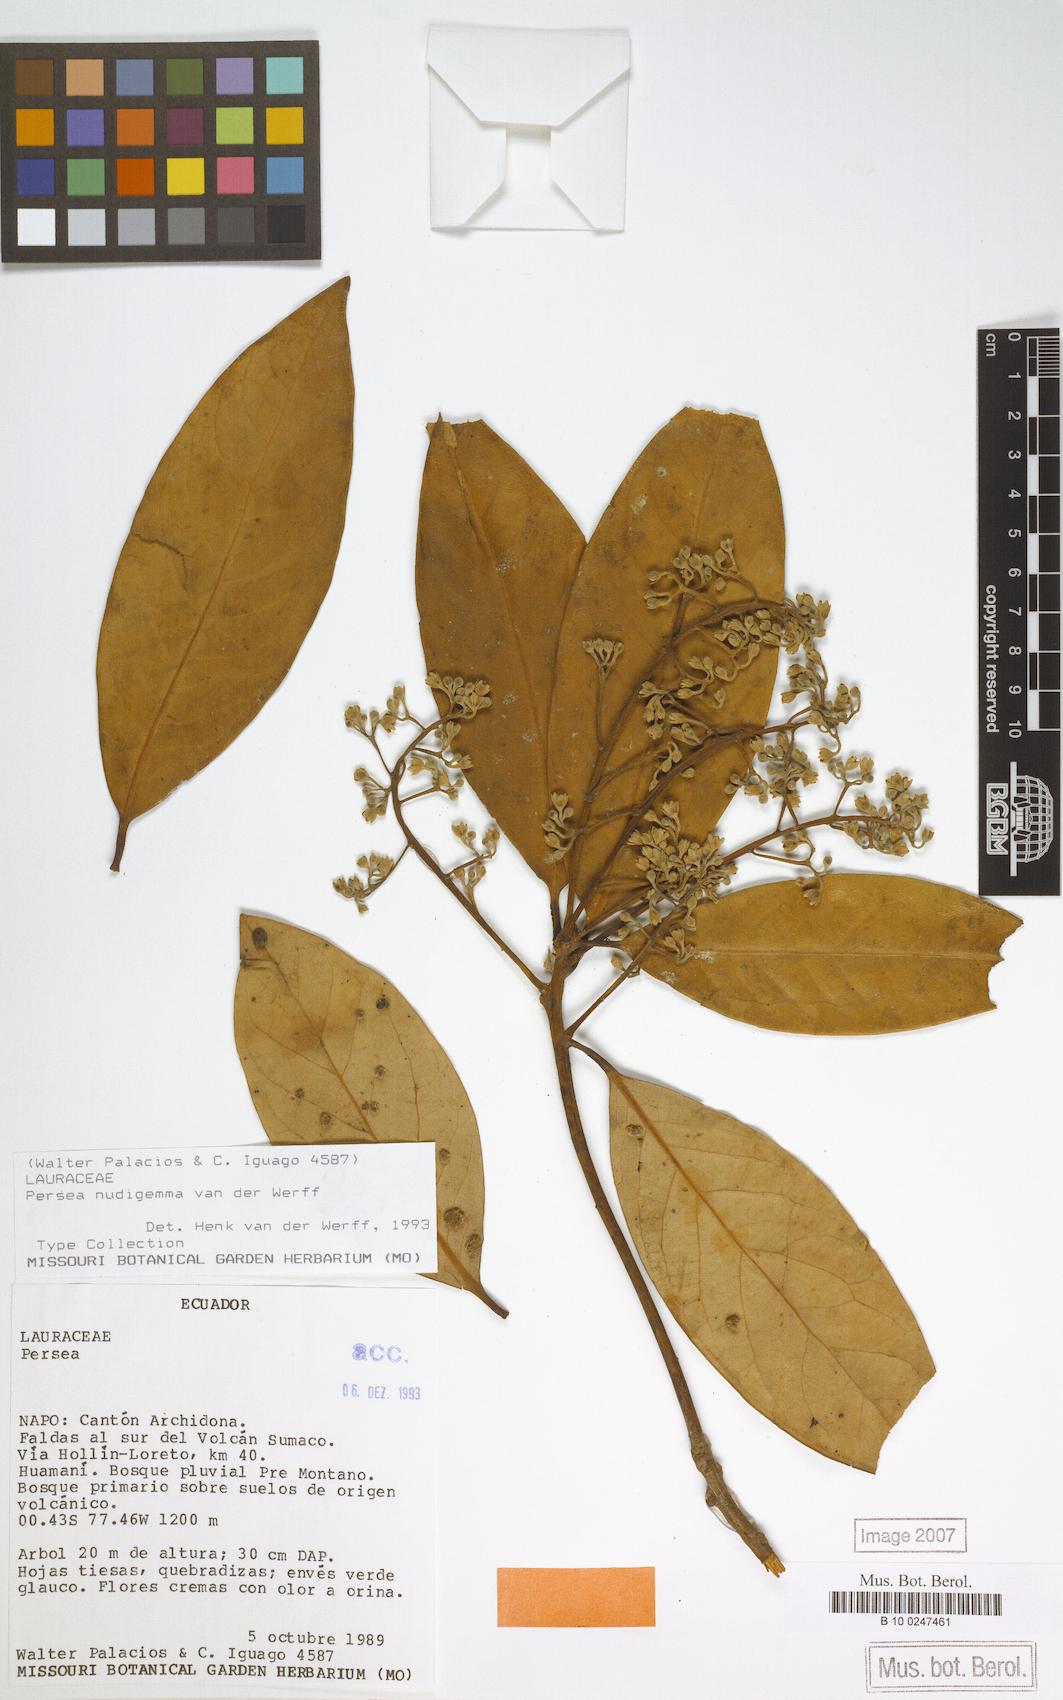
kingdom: Plantae
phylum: Tracheophyta
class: Magnoliopsida
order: Laurales
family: Lauraceae
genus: Persea
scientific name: Persea nudigemma
